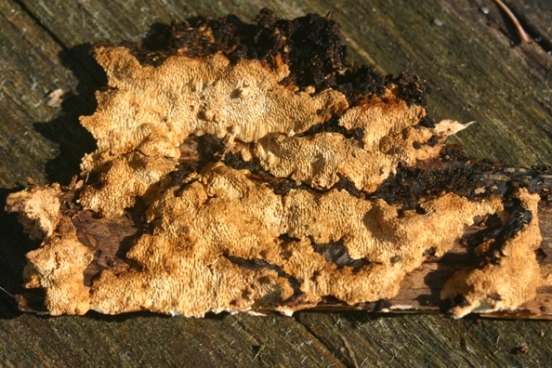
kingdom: Fungi
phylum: Basidiomycota
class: Agaricomycetes
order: Polyporales
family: Fomitopsidaceae
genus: Neoantrodia
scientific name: Neoantrodia serialis
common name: række-sejporesvamp
